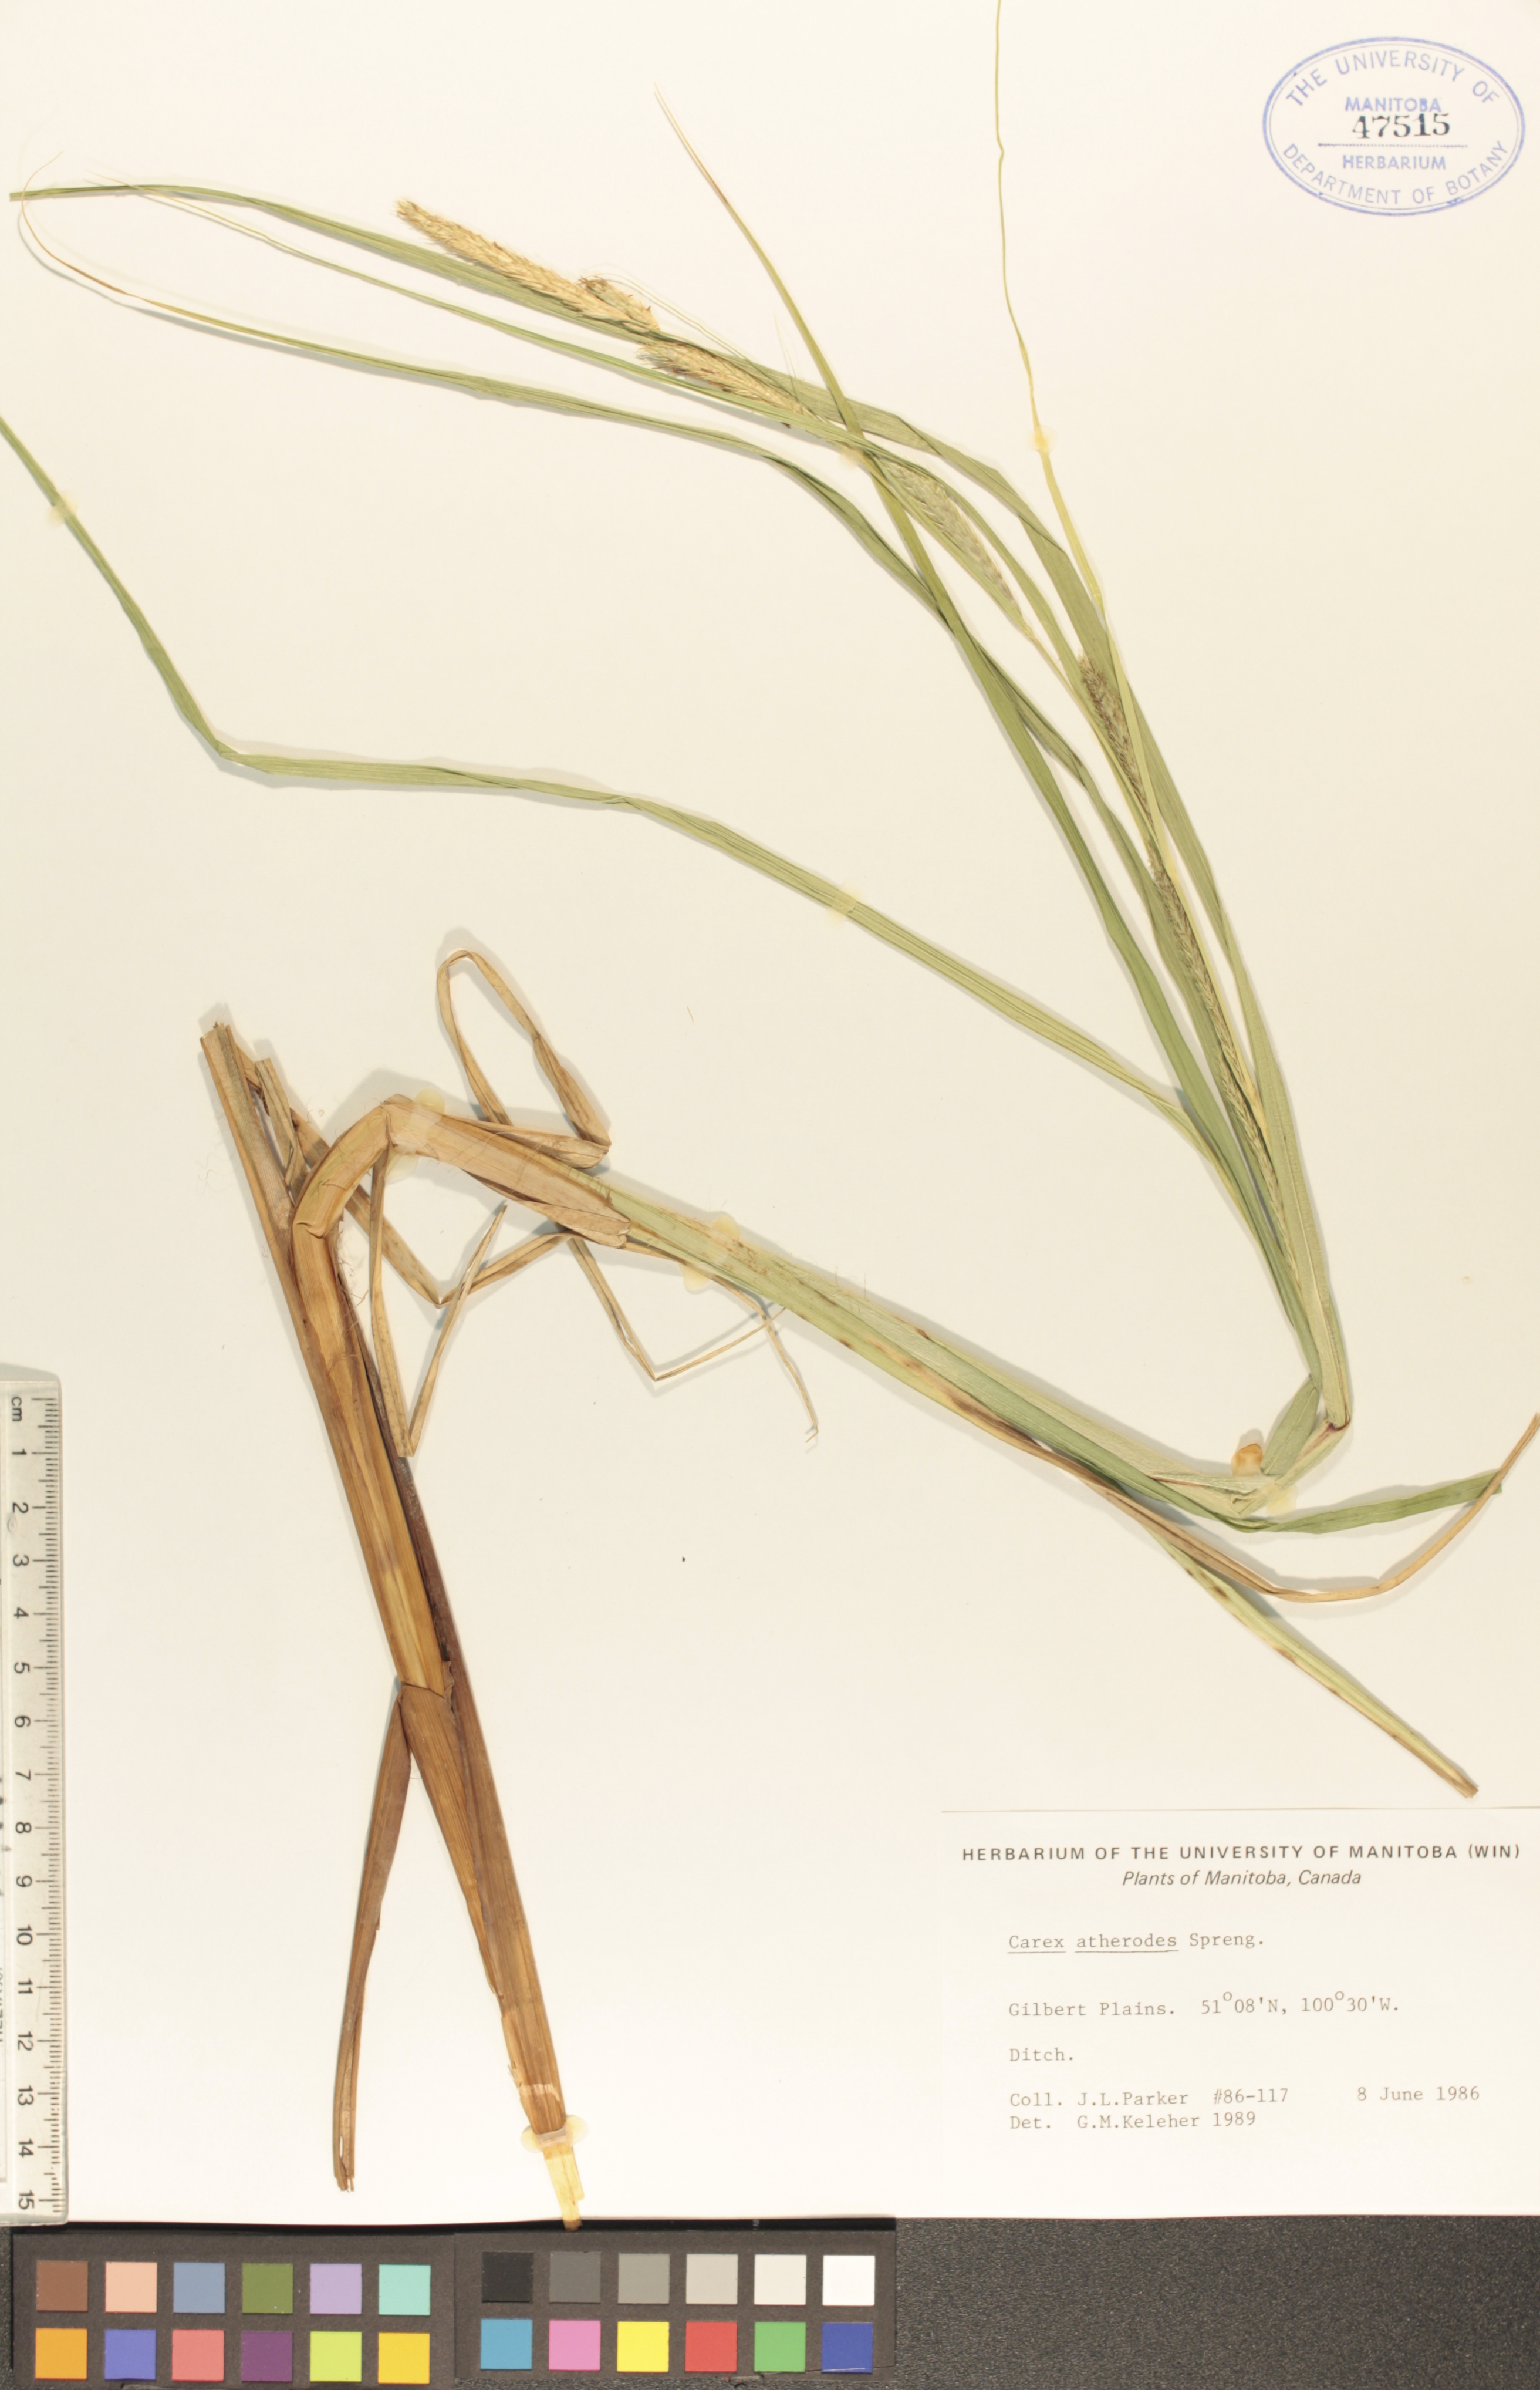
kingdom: Plantae
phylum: Tracheophyta
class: Liliopsida
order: Poales
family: Cyperaceae
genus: Carex
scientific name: Carex atherodes
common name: Wheat sedge
